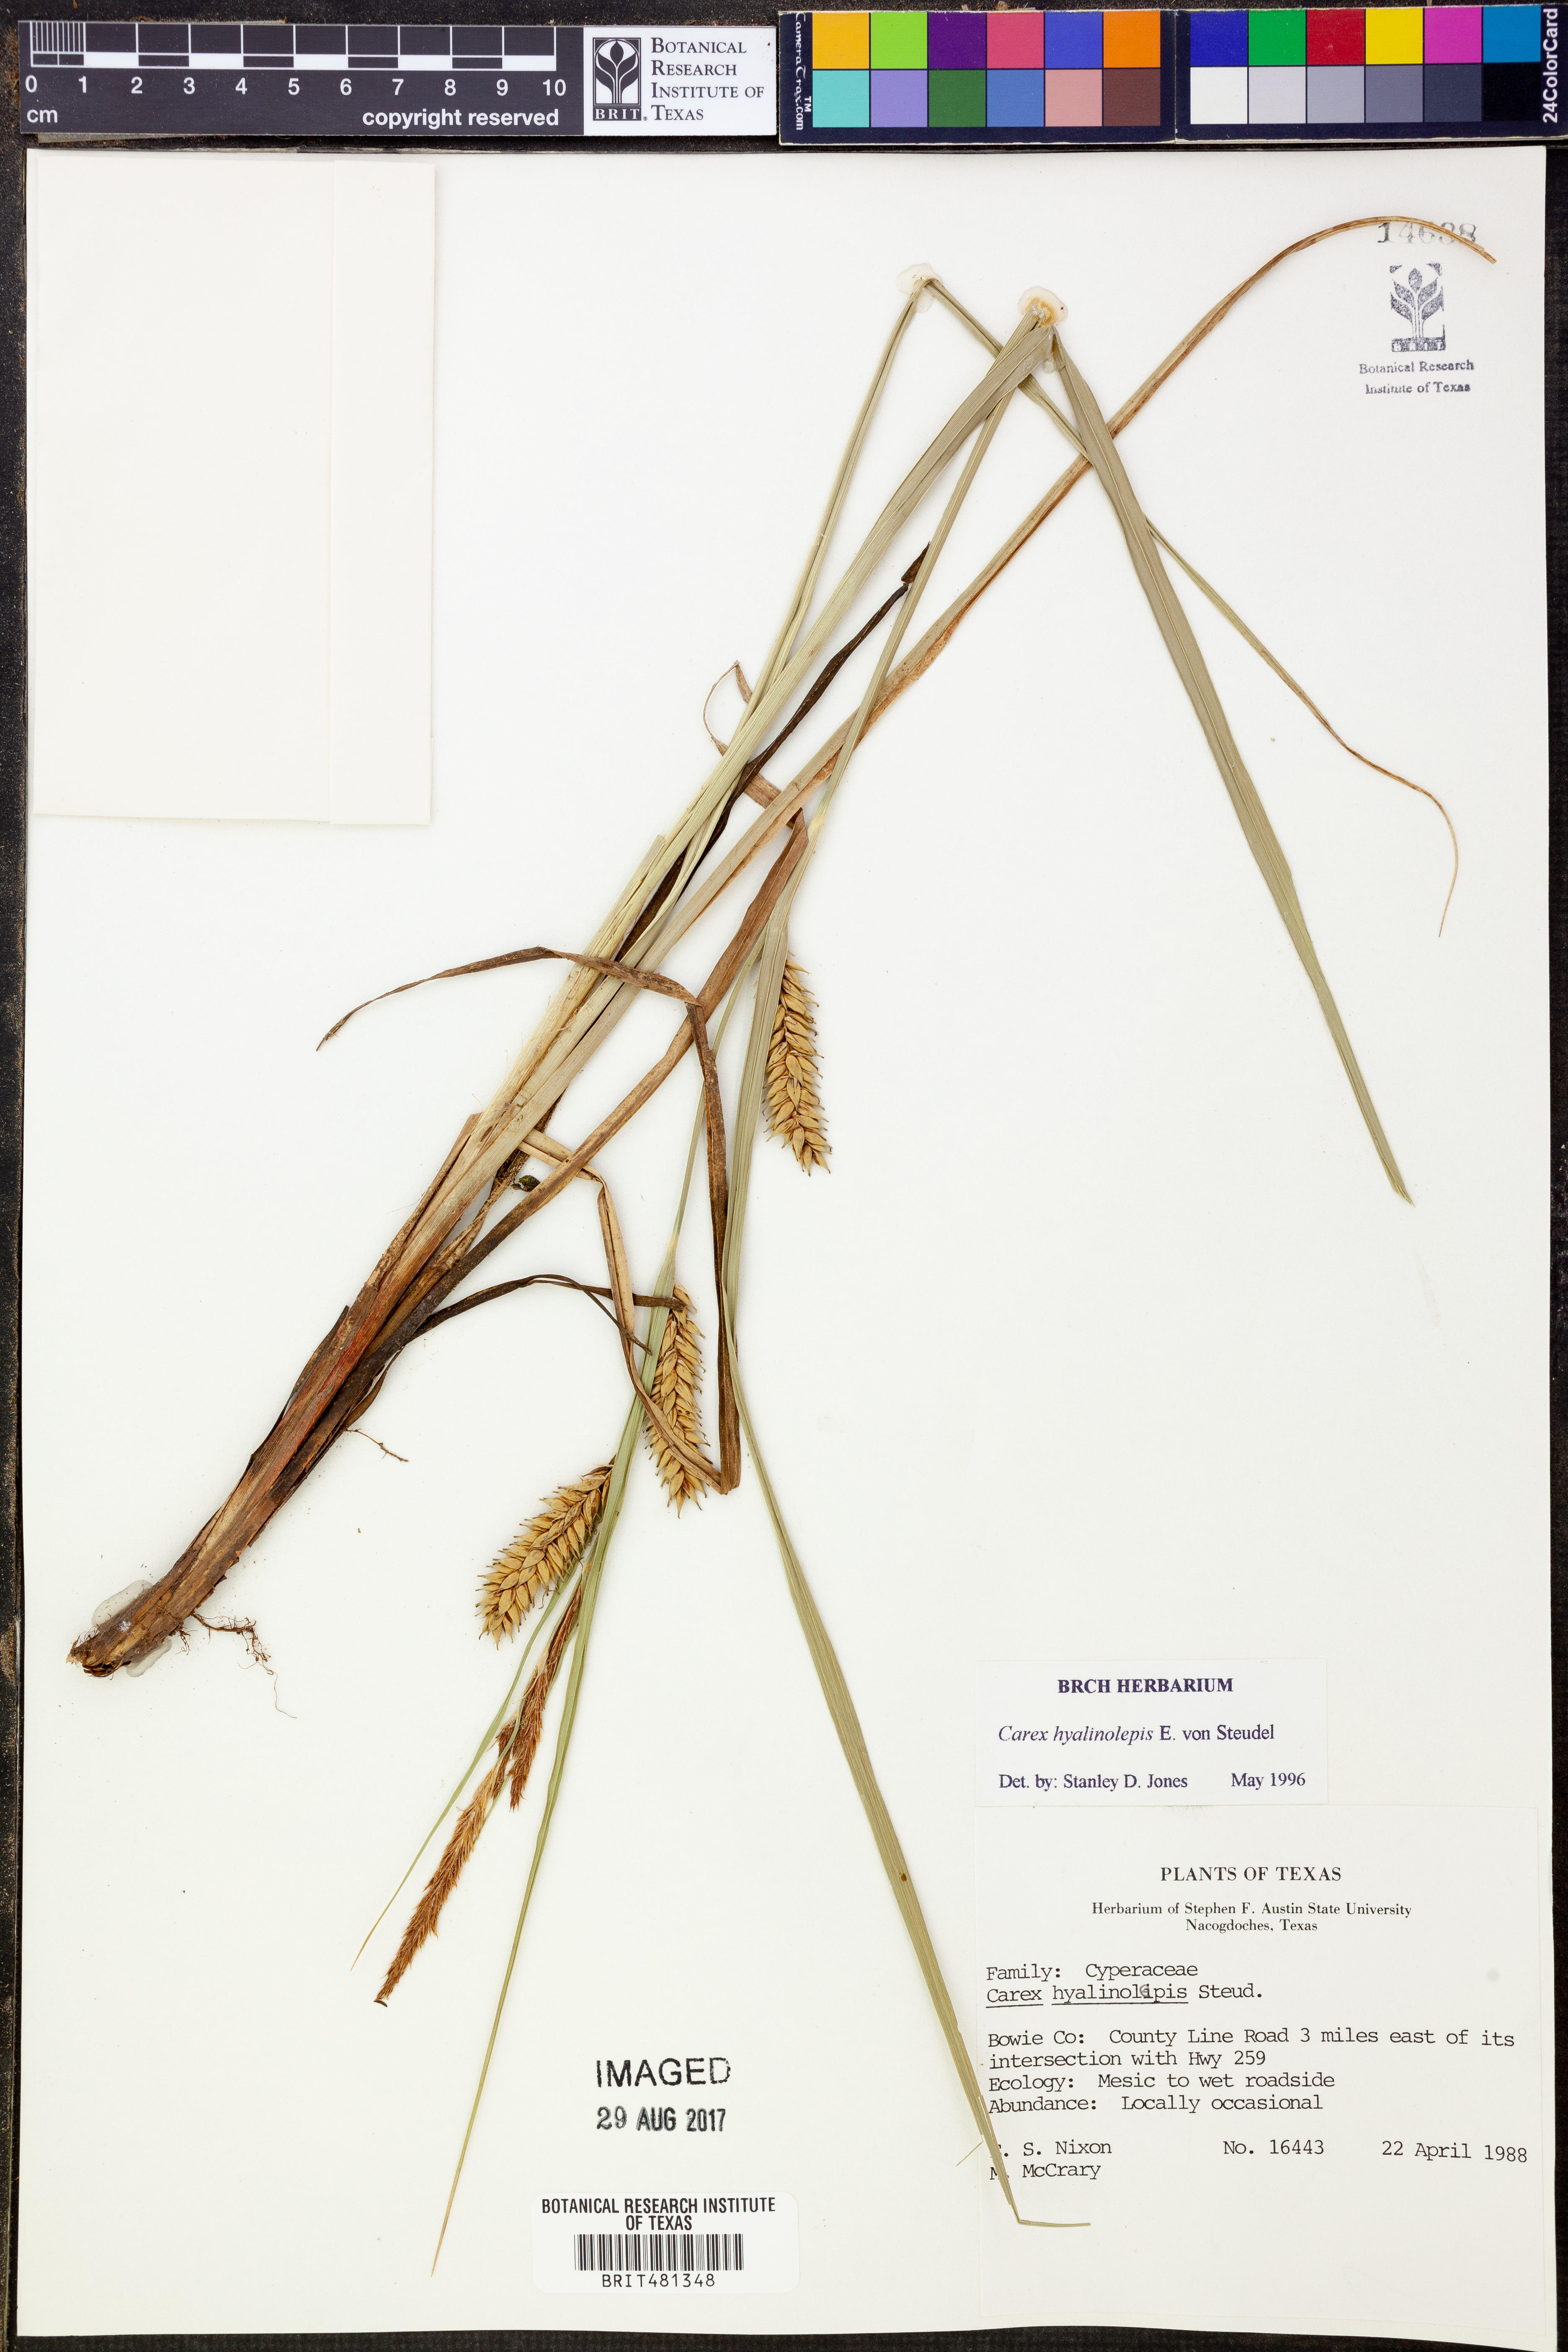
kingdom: Plantae
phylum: Tracheophyta
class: Liliopsida
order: Poales
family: Cyperaceae
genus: Carex
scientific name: Carex hyalinolepis
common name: Shoreline sedge
